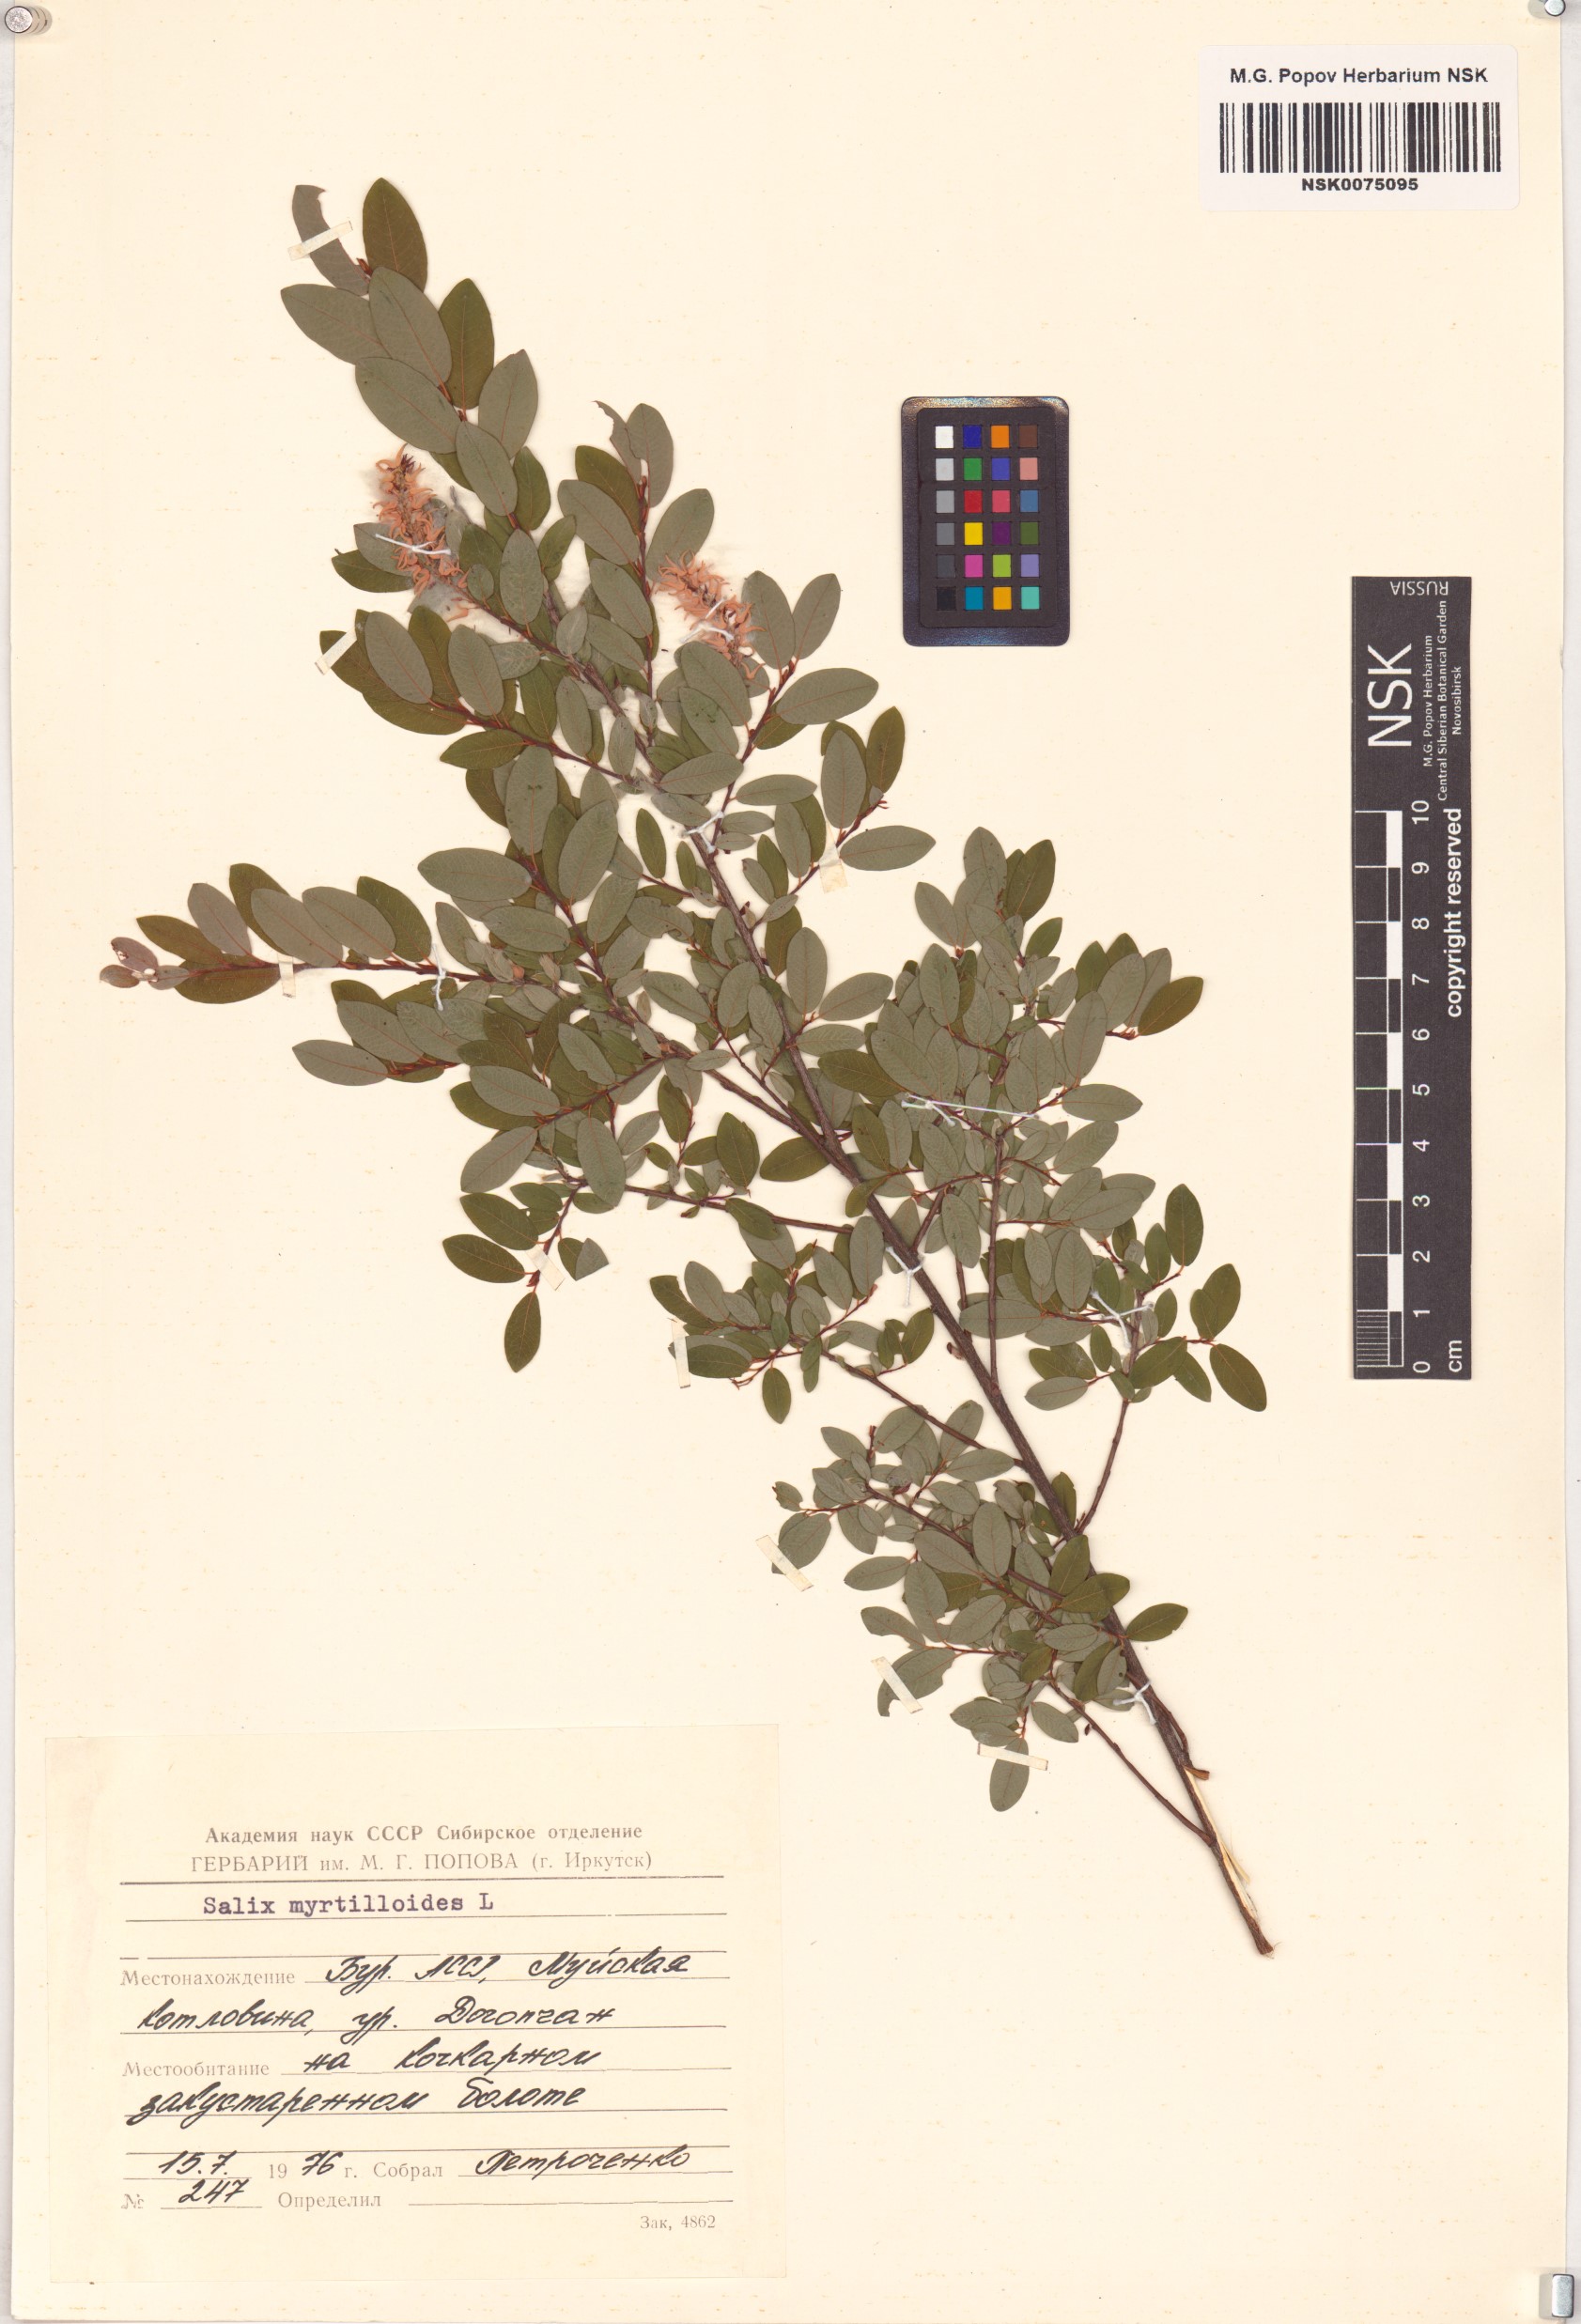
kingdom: Plantae
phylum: Tracheophyta
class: Magnoliopsida
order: Malpighiales
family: Salicaceae
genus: Salix
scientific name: Salix myrtilloides
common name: Myrtle-leaved willow
